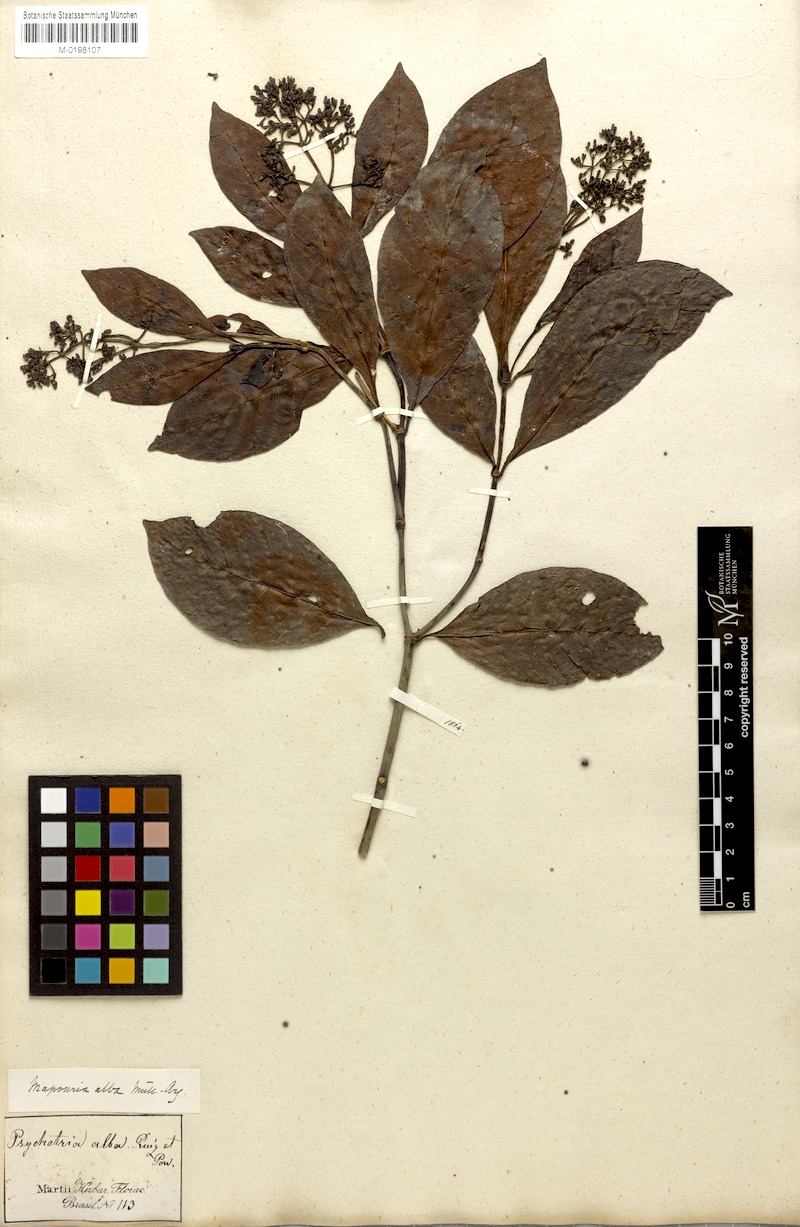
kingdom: Plantae
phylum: Tracheophyta
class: Magnoliopsida
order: Gentianales
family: Rubiaceae
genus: Psychotria
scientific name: Psychotria alba
